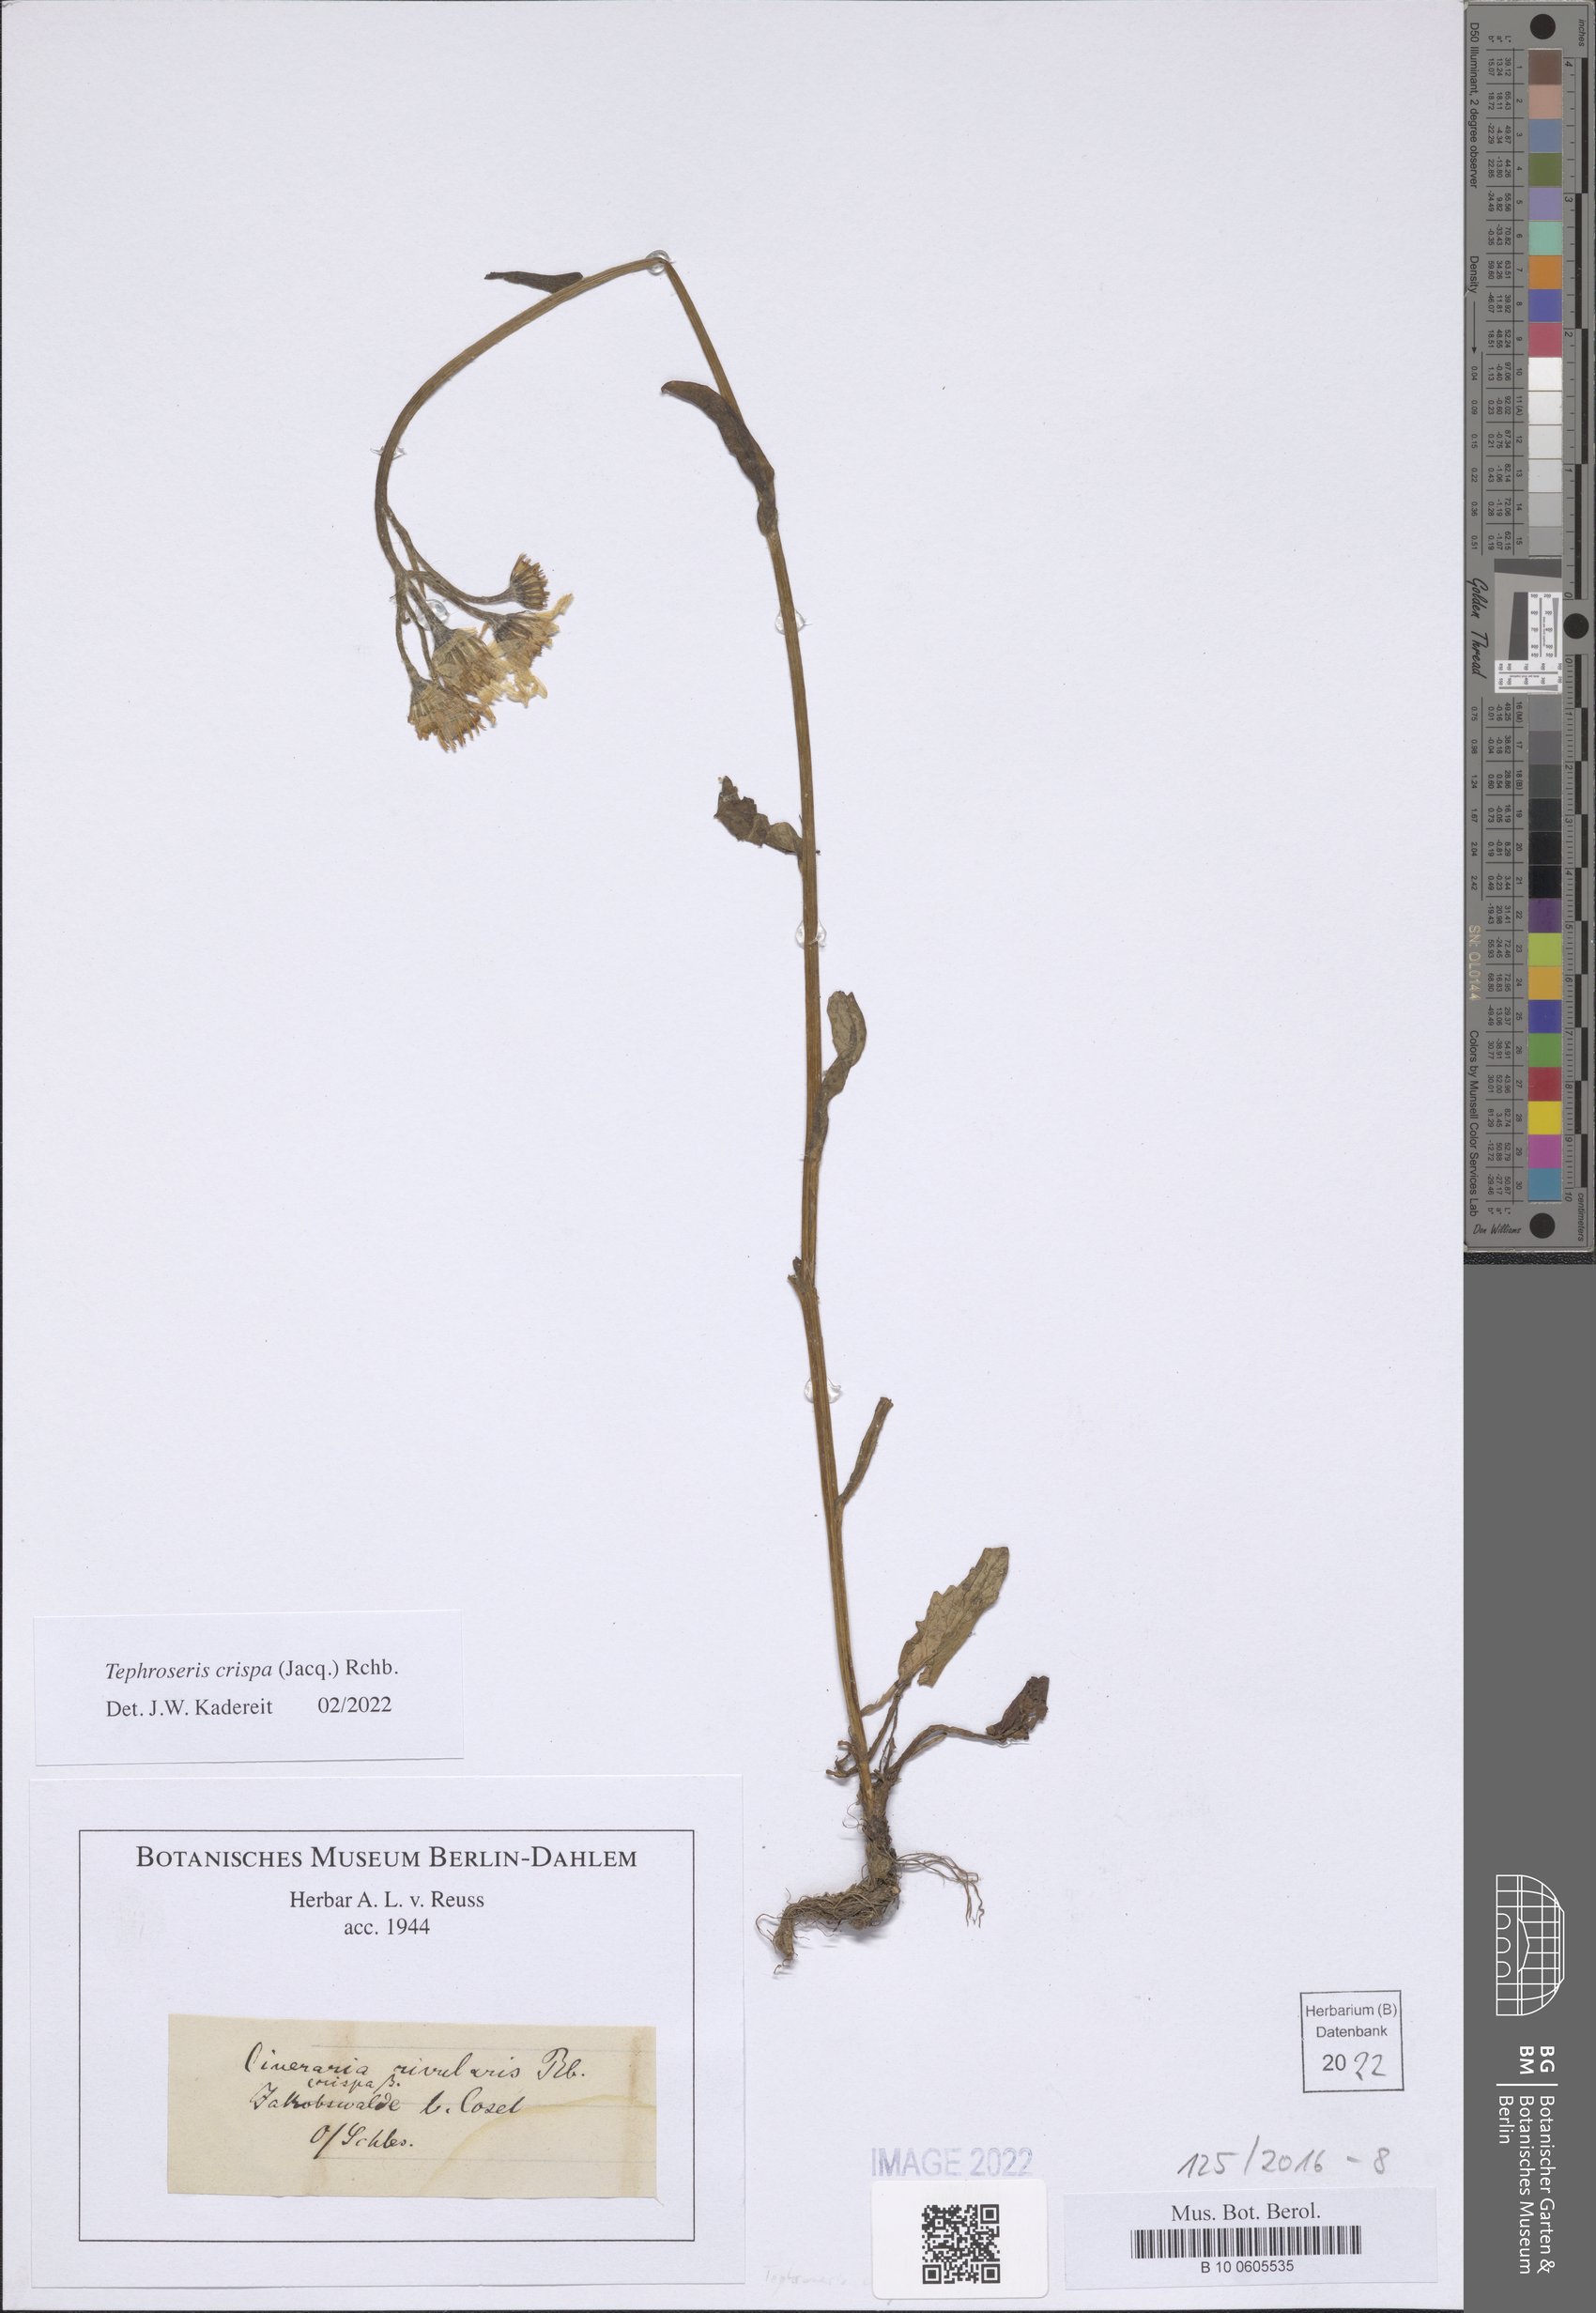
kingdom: Plantae
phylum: Tracheophyta
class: Magnoliopsida
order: Asterales
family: Asteraceae
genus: Tephroseris
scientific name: Tephroseris crispa
